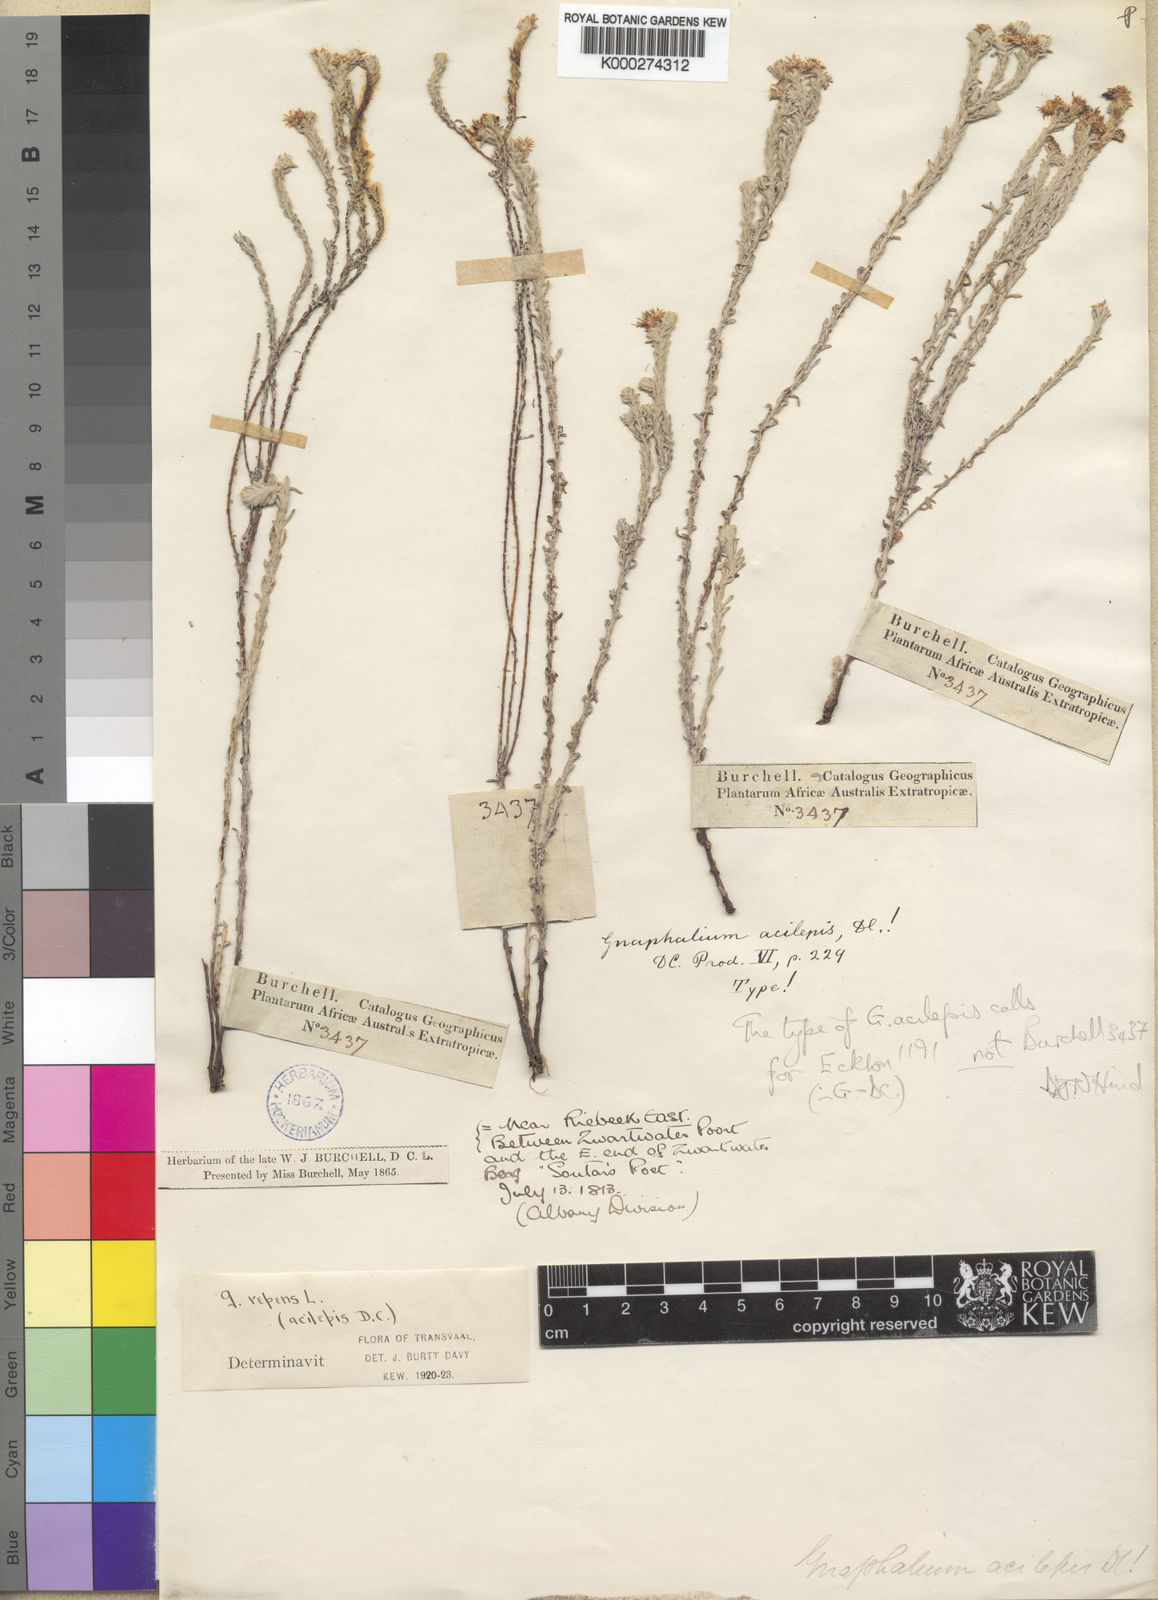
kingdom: Plantae
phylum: Tracheophyta
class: Magnoliopsida
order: Asterales
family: Asteraceae
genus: Syncarpha
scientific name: Syncarpha vestita
